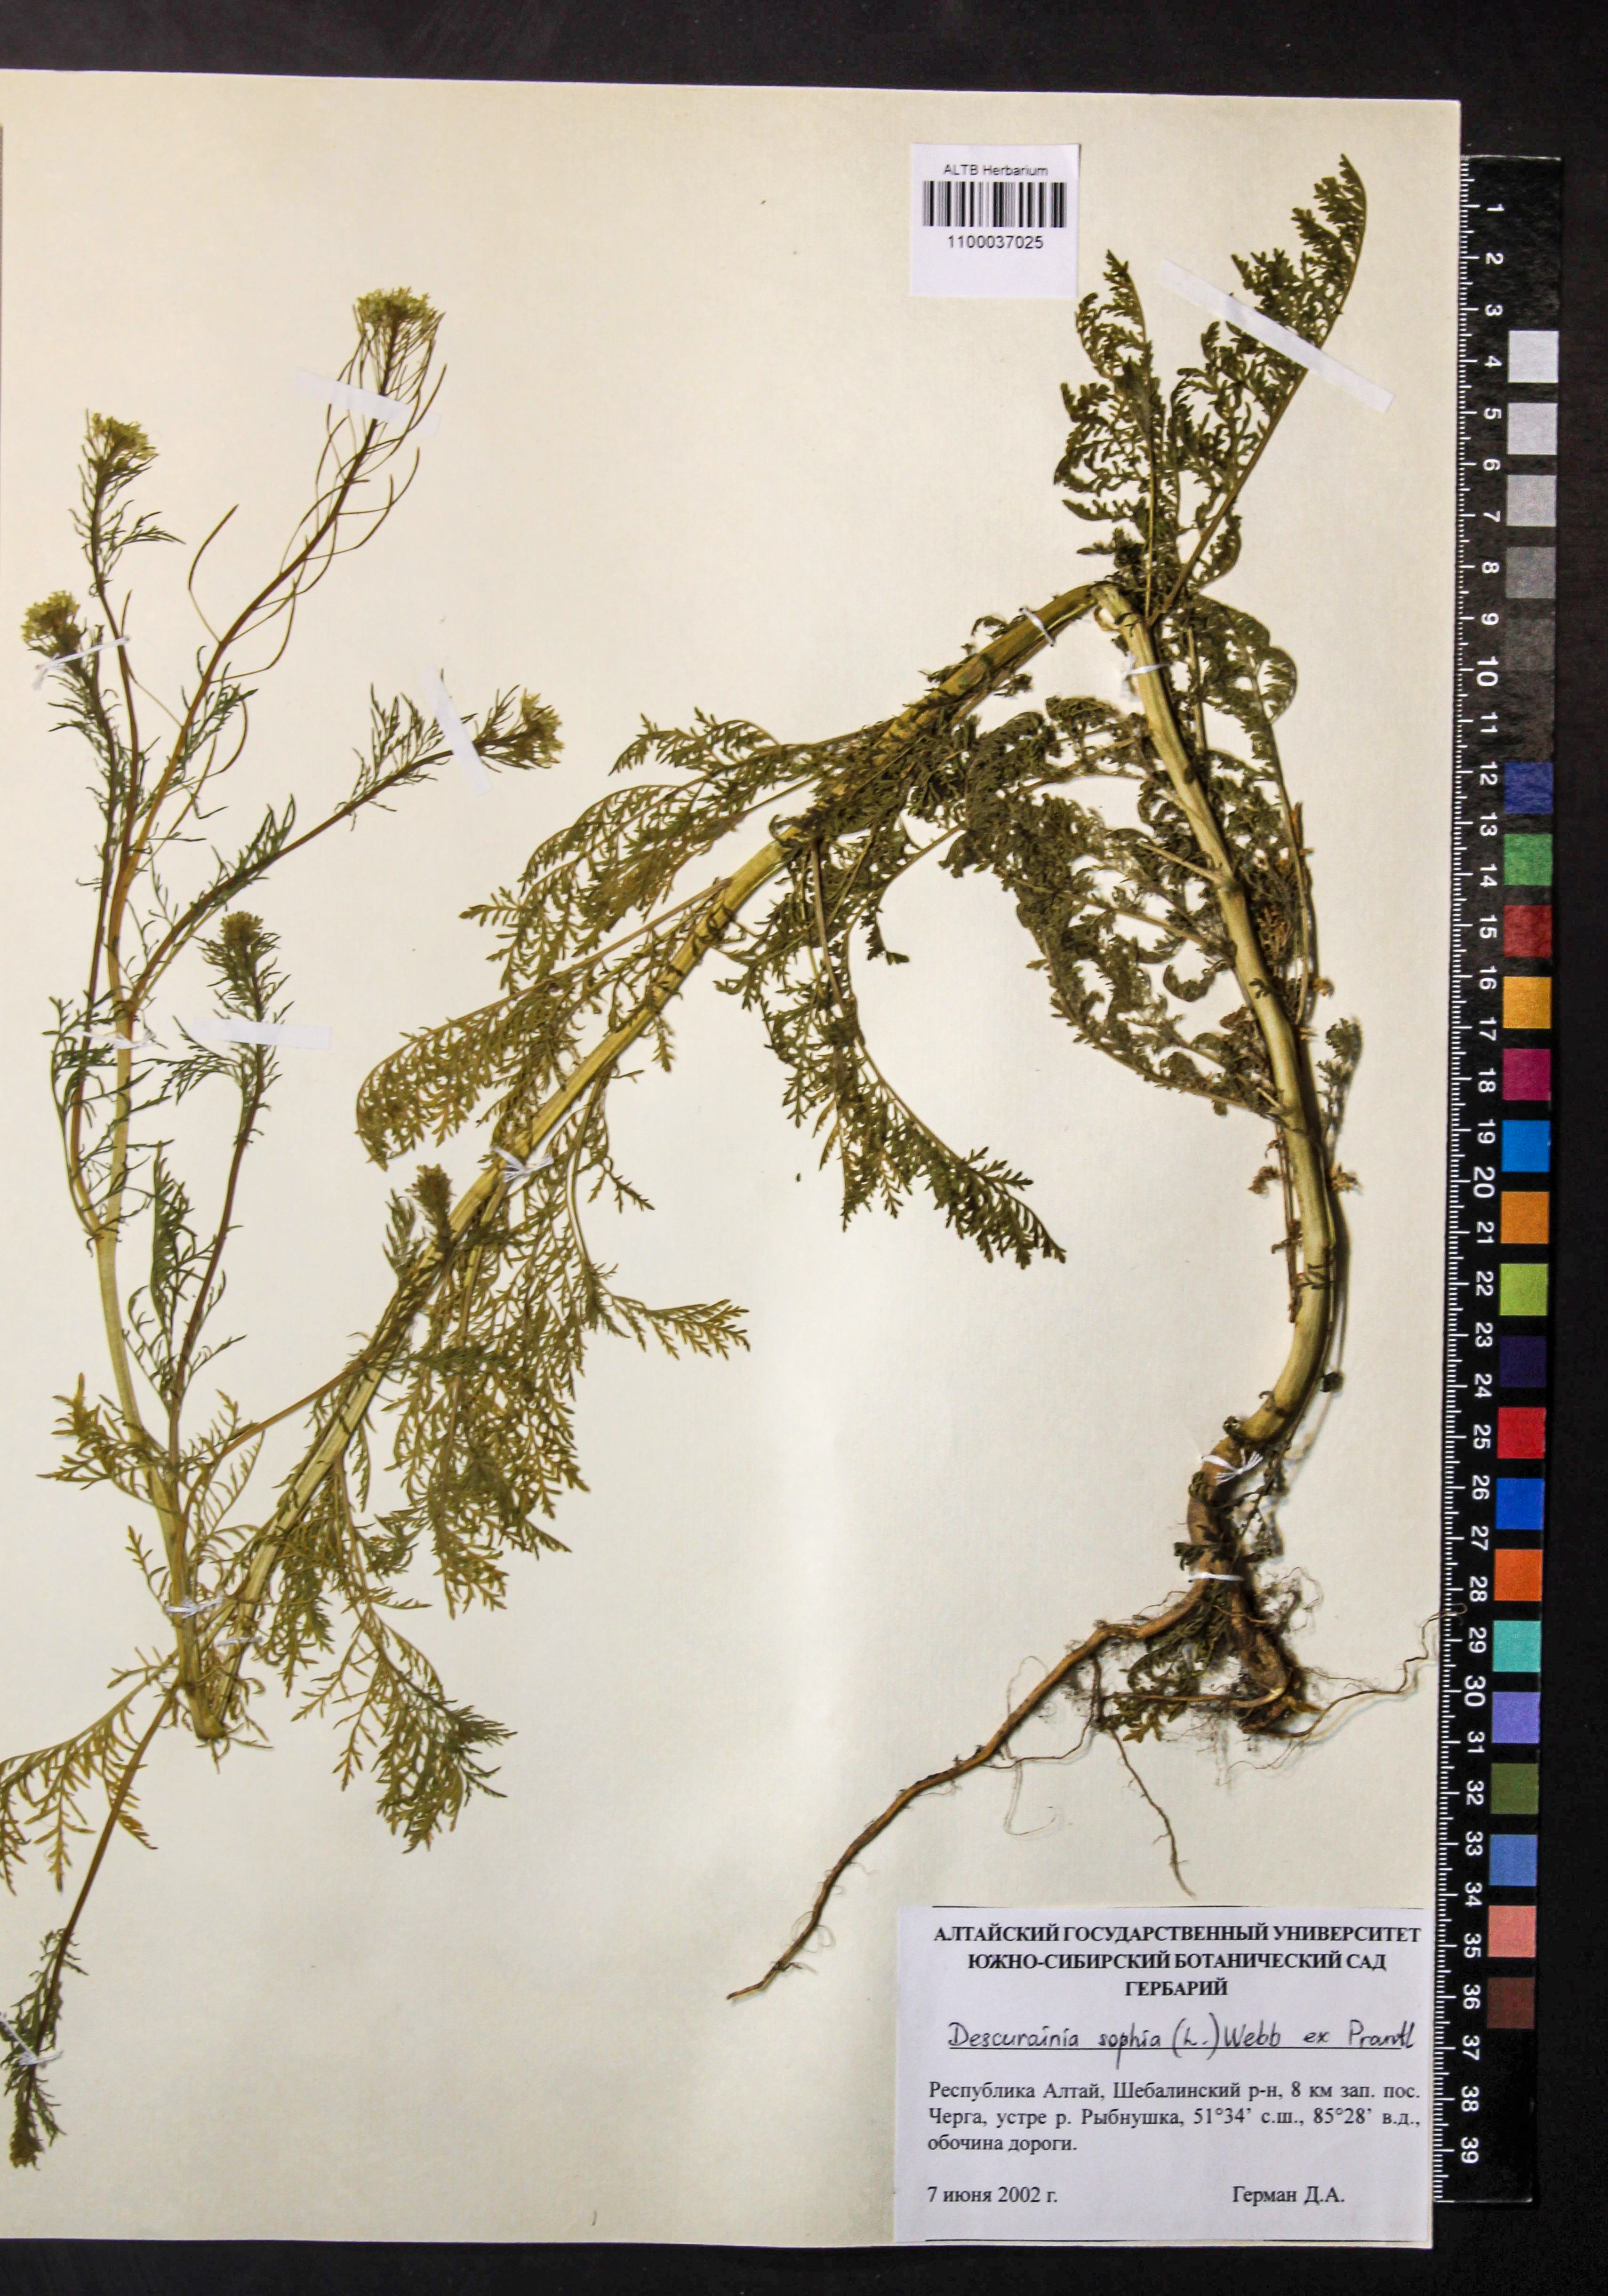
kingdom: Plantae
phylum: Tracheophyta
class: Magnoliopsida
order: Brassicales
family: Brassicaceae
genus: Descurainia
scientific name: Descurainia sophia
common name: Flixweed
